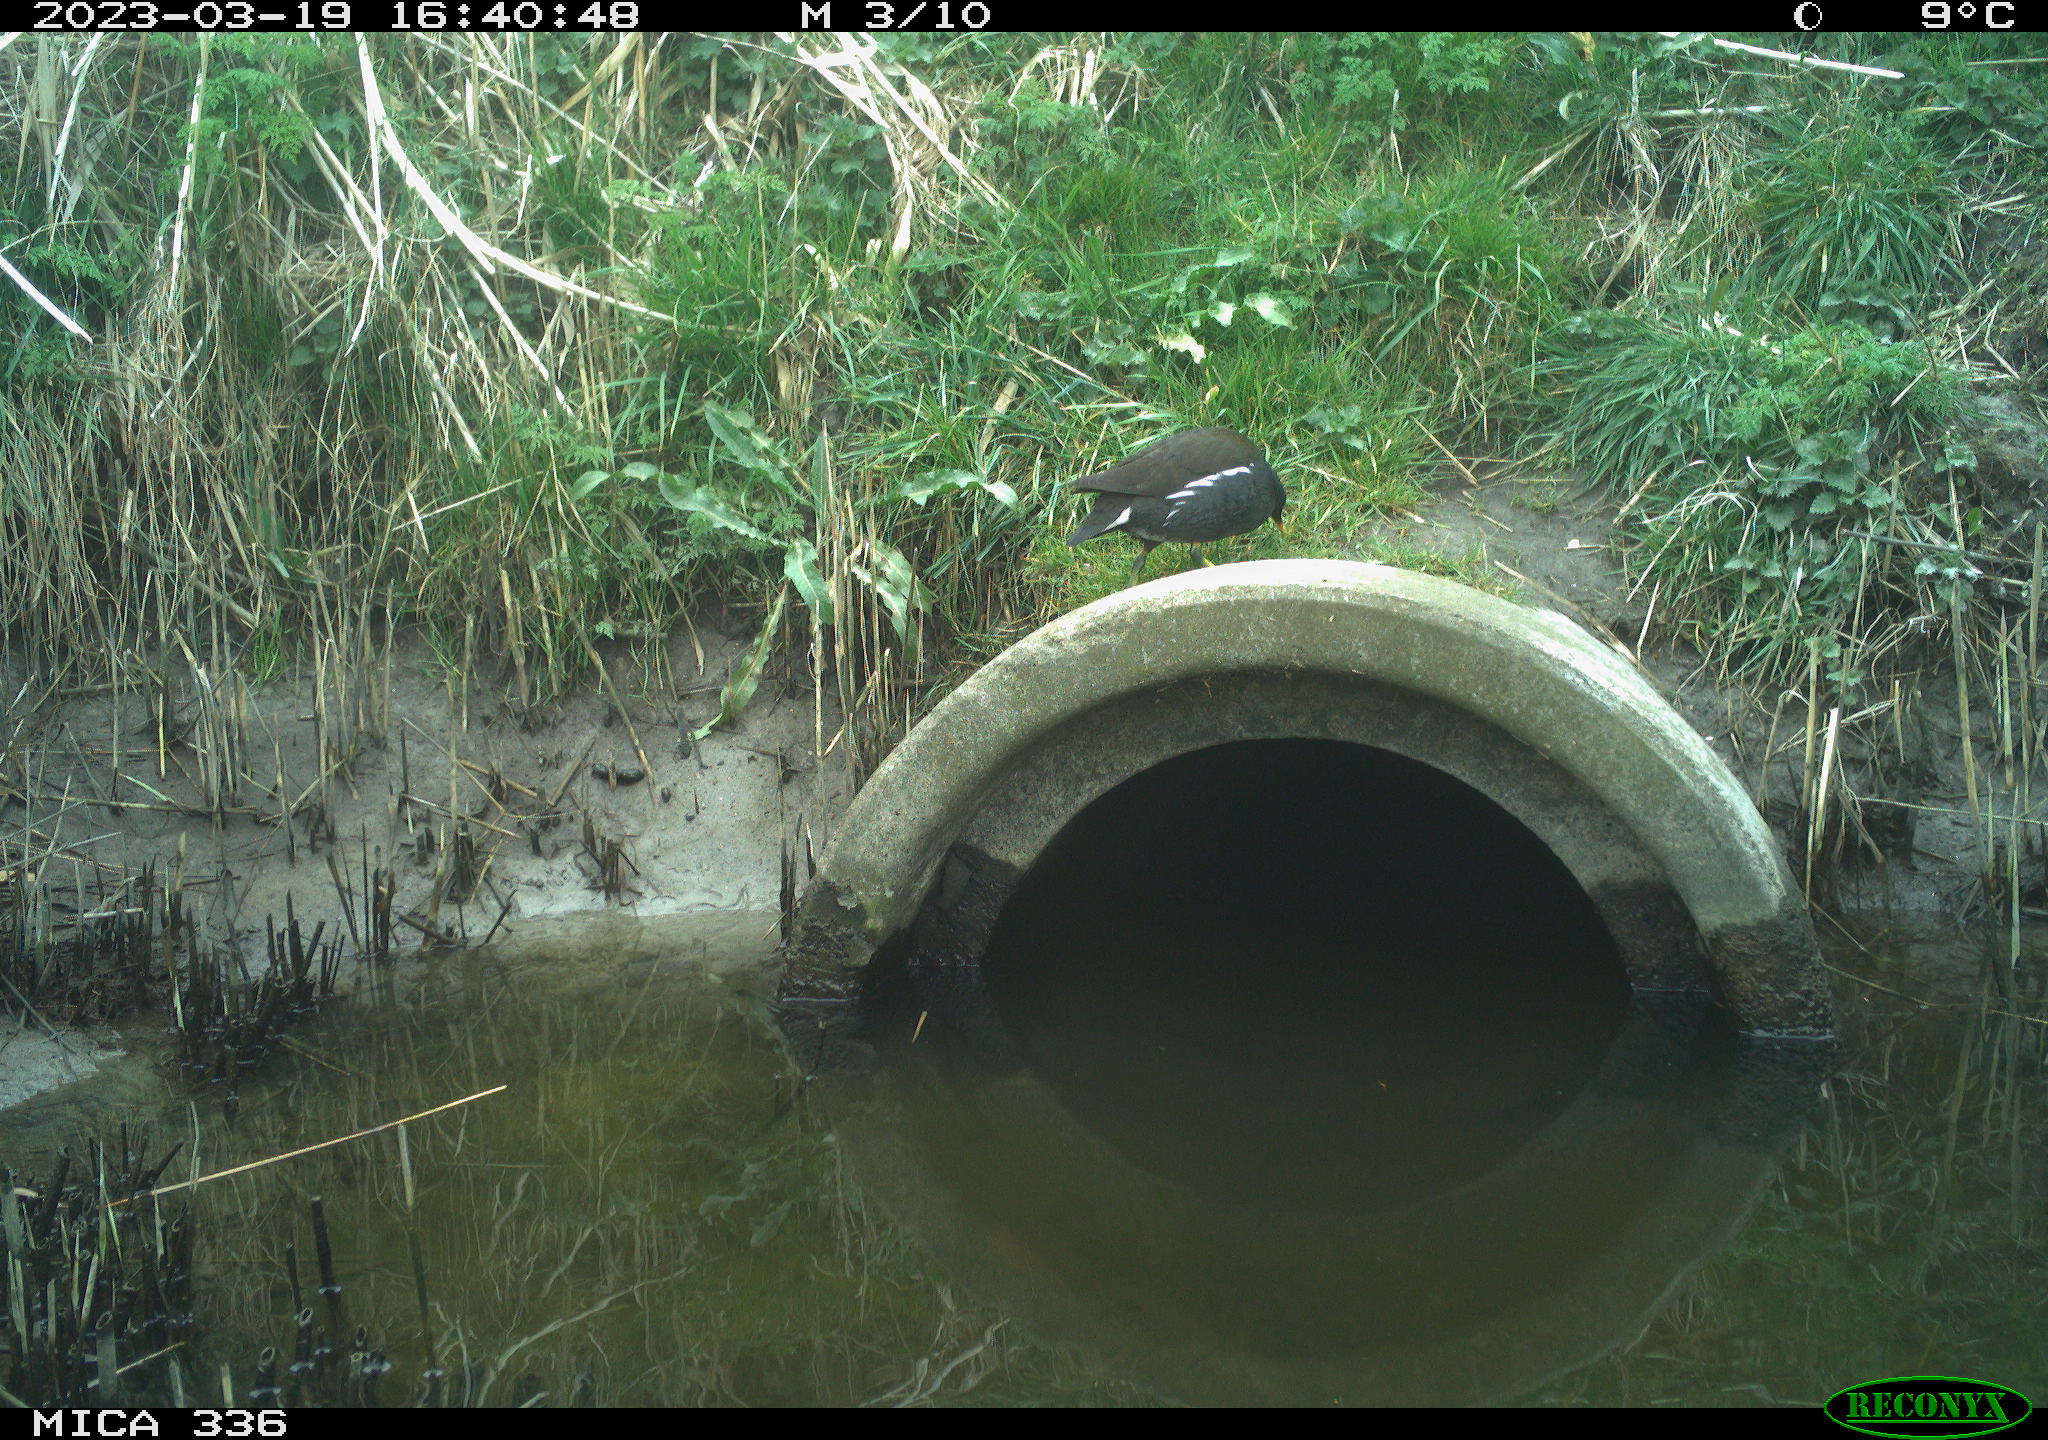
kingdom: Animalia
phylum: Chordata
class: Aves
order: Gruiformes
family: Rallidae
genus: Gallinula
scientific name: Gallinula chloropus
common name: Common moorhen
